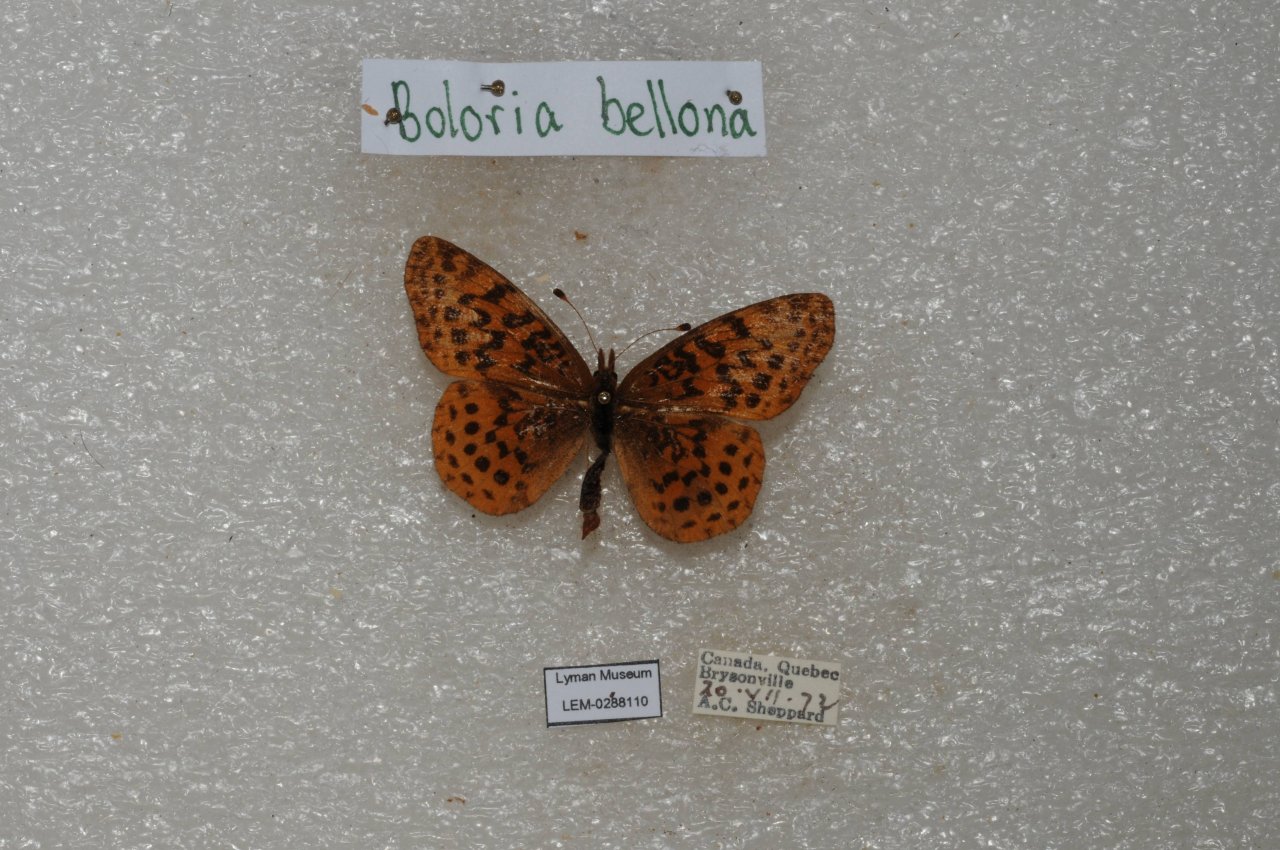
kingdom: Animalia
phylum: Arthropoda
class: Insecta
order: Lepidoptera
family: Nymphalidae
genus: Clossiana
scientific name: Clossiana toddi
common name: Meadow Fritillary
